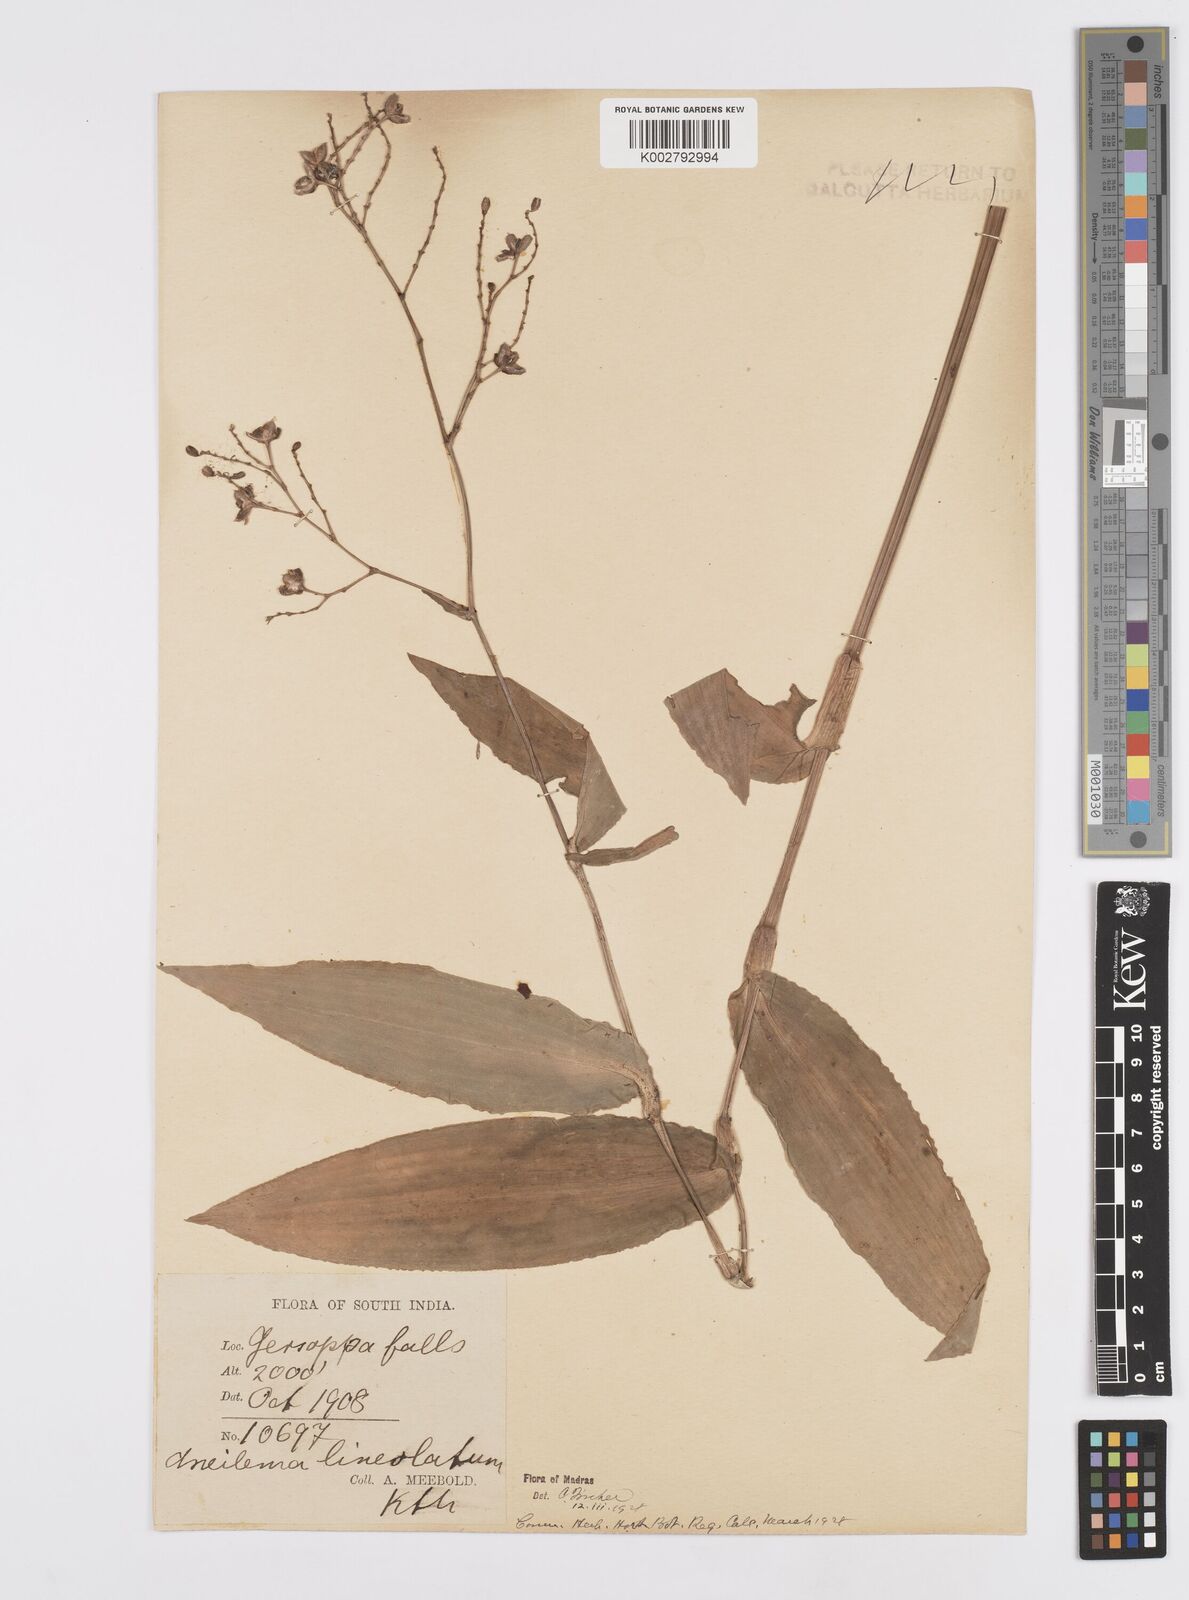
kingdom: Plantae
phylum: Tracheophyta
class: Liliopsida
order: Commelinales
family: Commelinaceae
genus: Murdannia
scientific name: Murdannia
